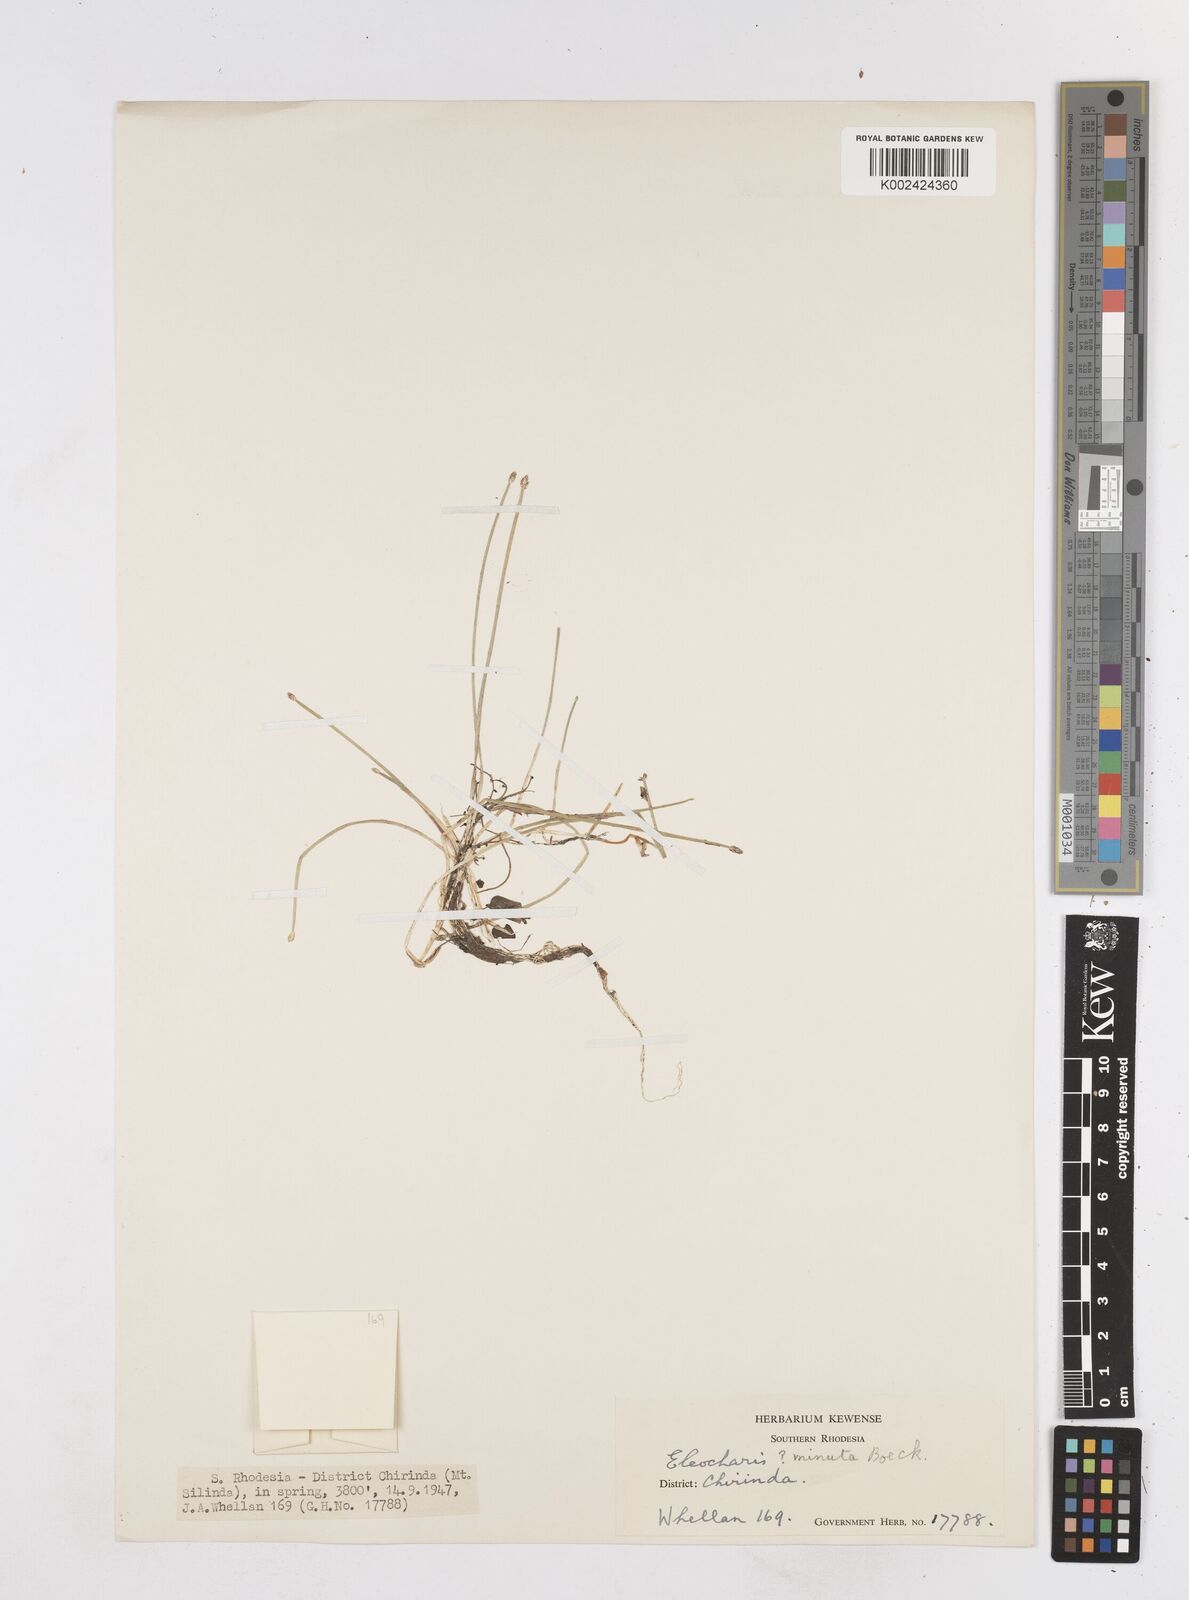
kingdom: Plantae
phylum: Tracheophyta
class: Liliopsida
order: Poales
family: Cyperaceae
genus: Eleocharis
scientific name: Eleocharis minuta
